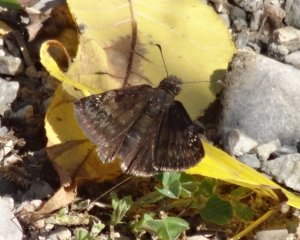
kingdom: Animalia
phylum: Arthropoda
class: Insecta
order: Lepidoptera
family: Hesperiidae
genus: Gesta
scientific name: Gesta
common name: Wild Indigo Duskywing
